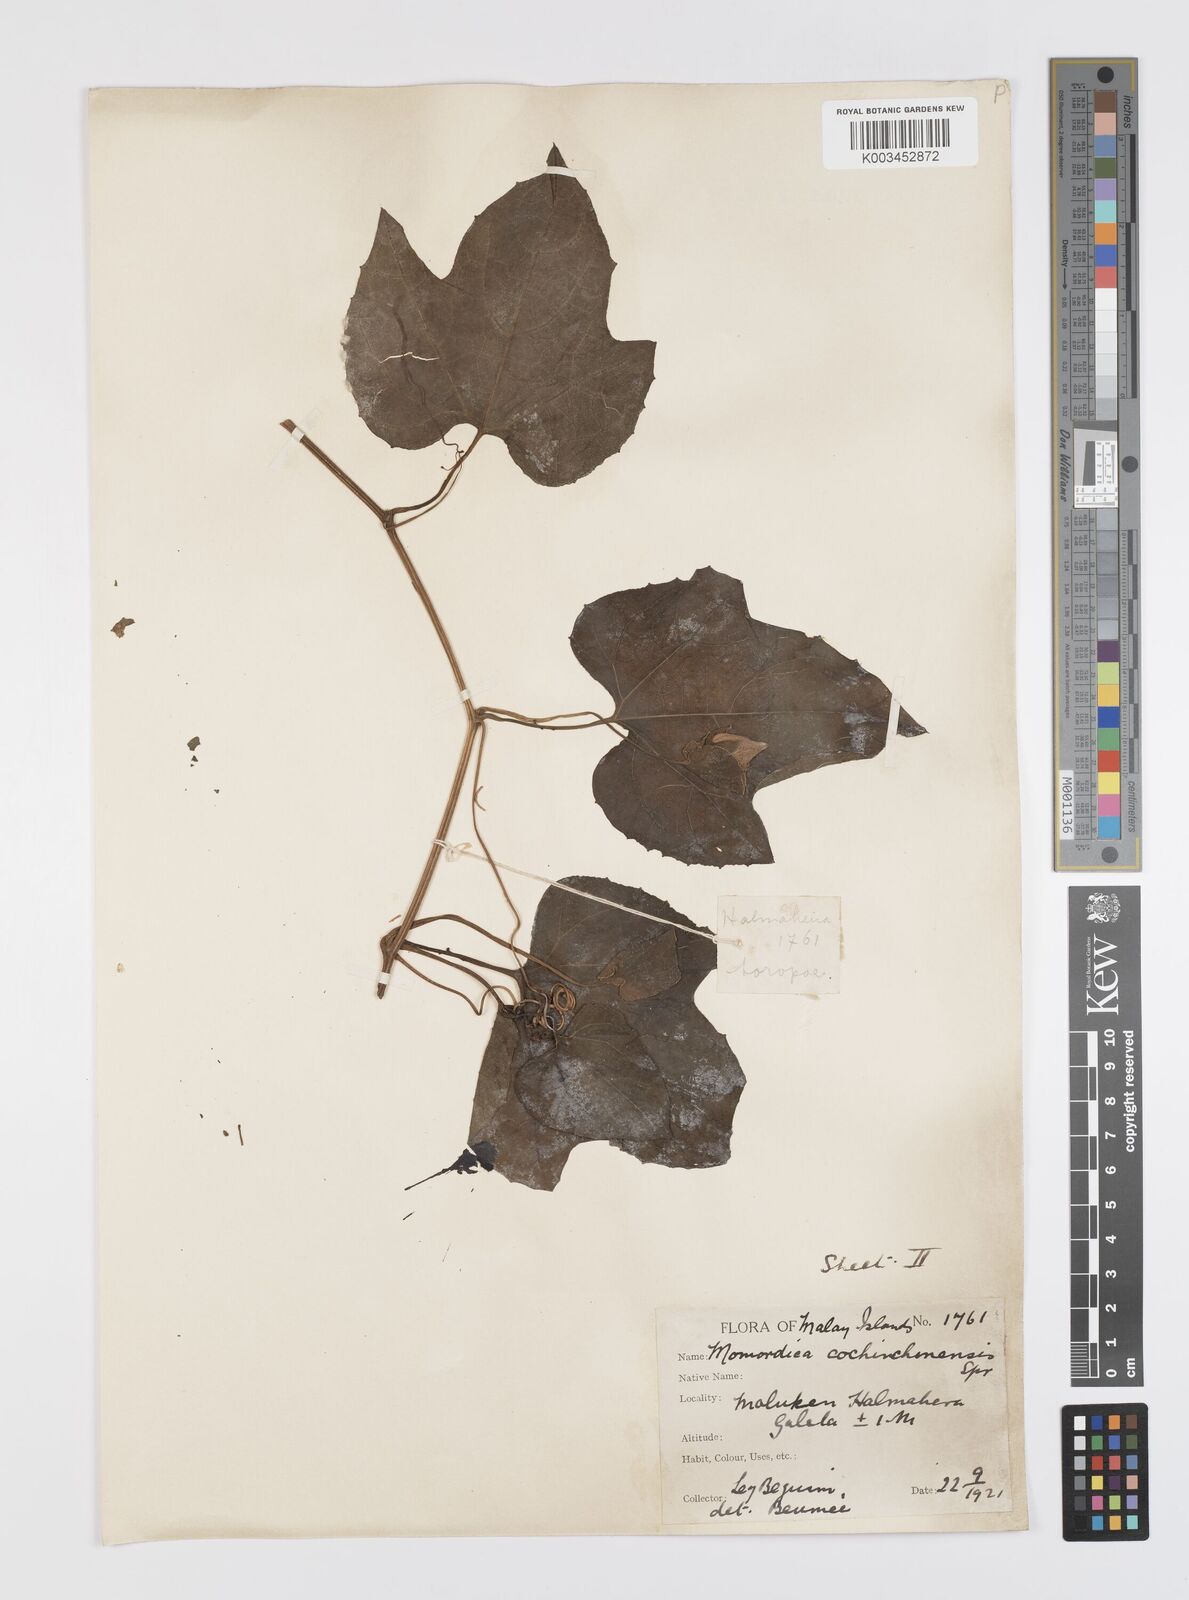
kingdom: Plantae
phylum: Tracheophyta
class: Magnoliopsida
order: Cucurbitales
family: Cucurbitaceae
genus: Momordica
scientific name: Momordica cochinchinensis
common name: Chinese bitter-cucumber
